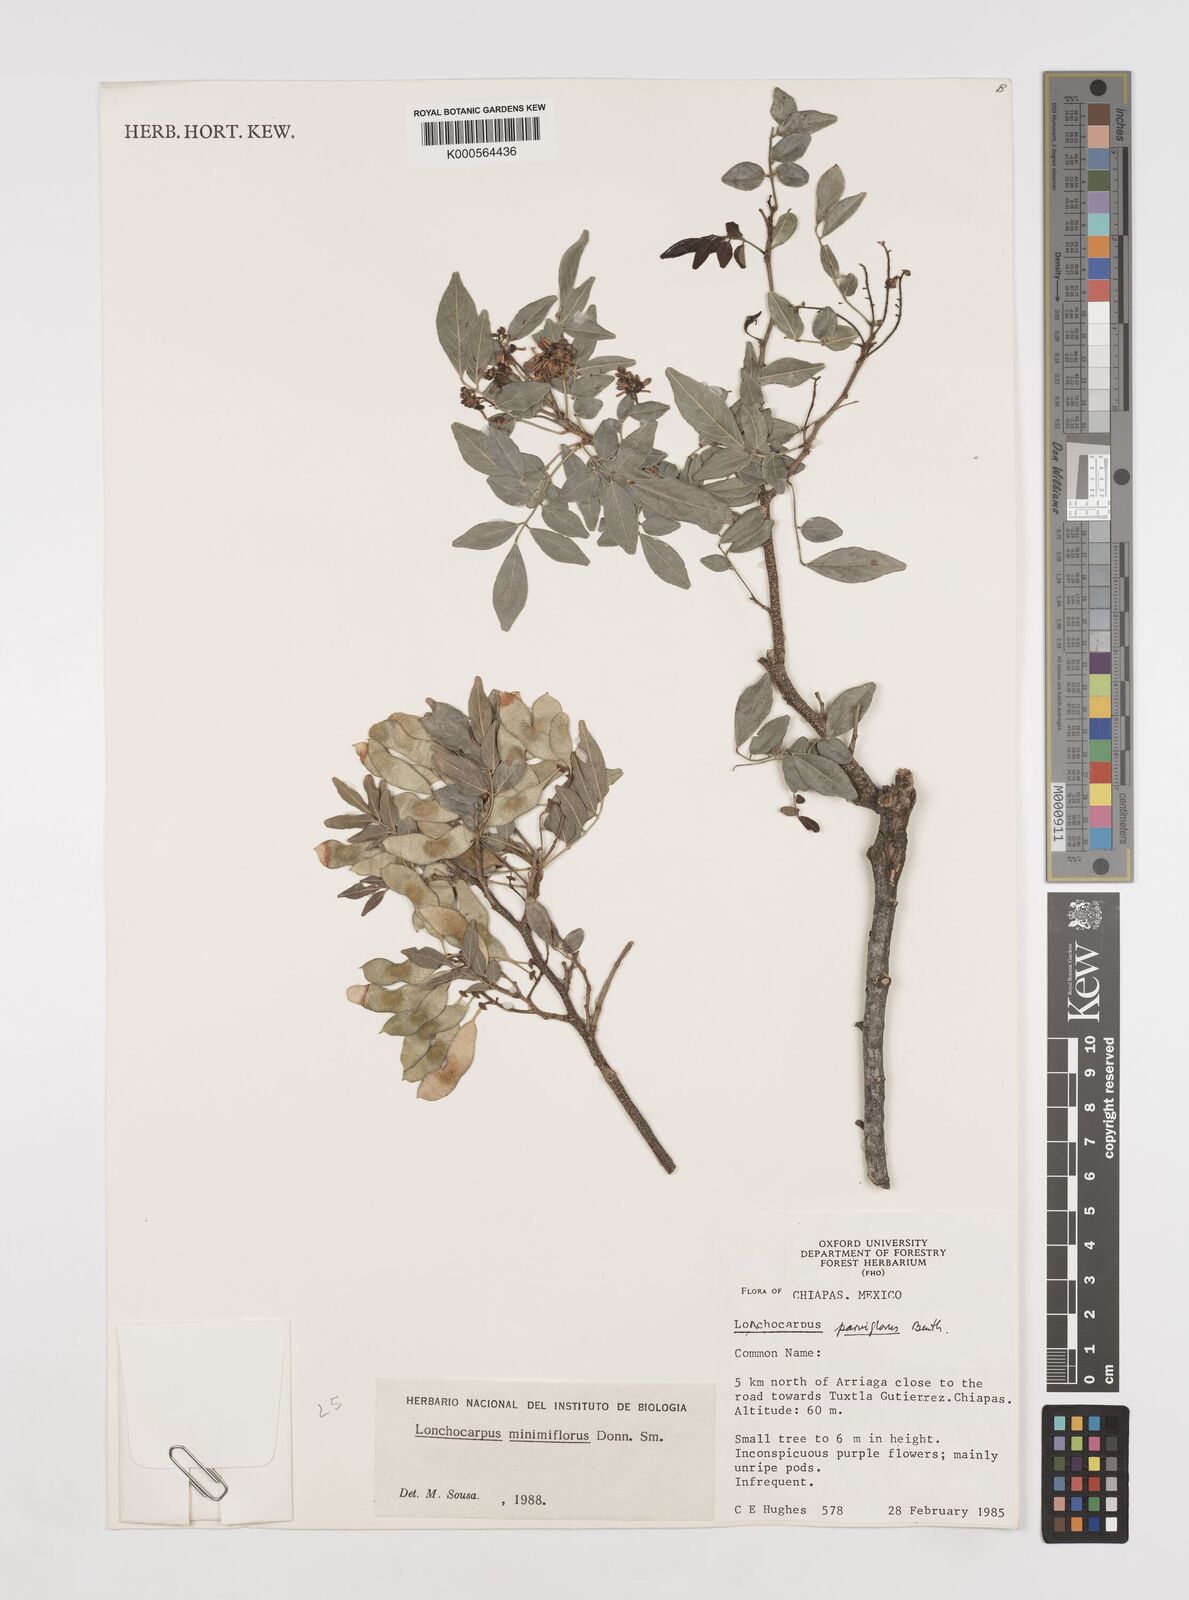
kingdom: Plantae
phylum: Tracheophyta
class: Magnoliopsida
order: Fabales
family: Fabaceae
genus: Lonchocarpus
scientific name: Lonchocarpus minimiflorus
